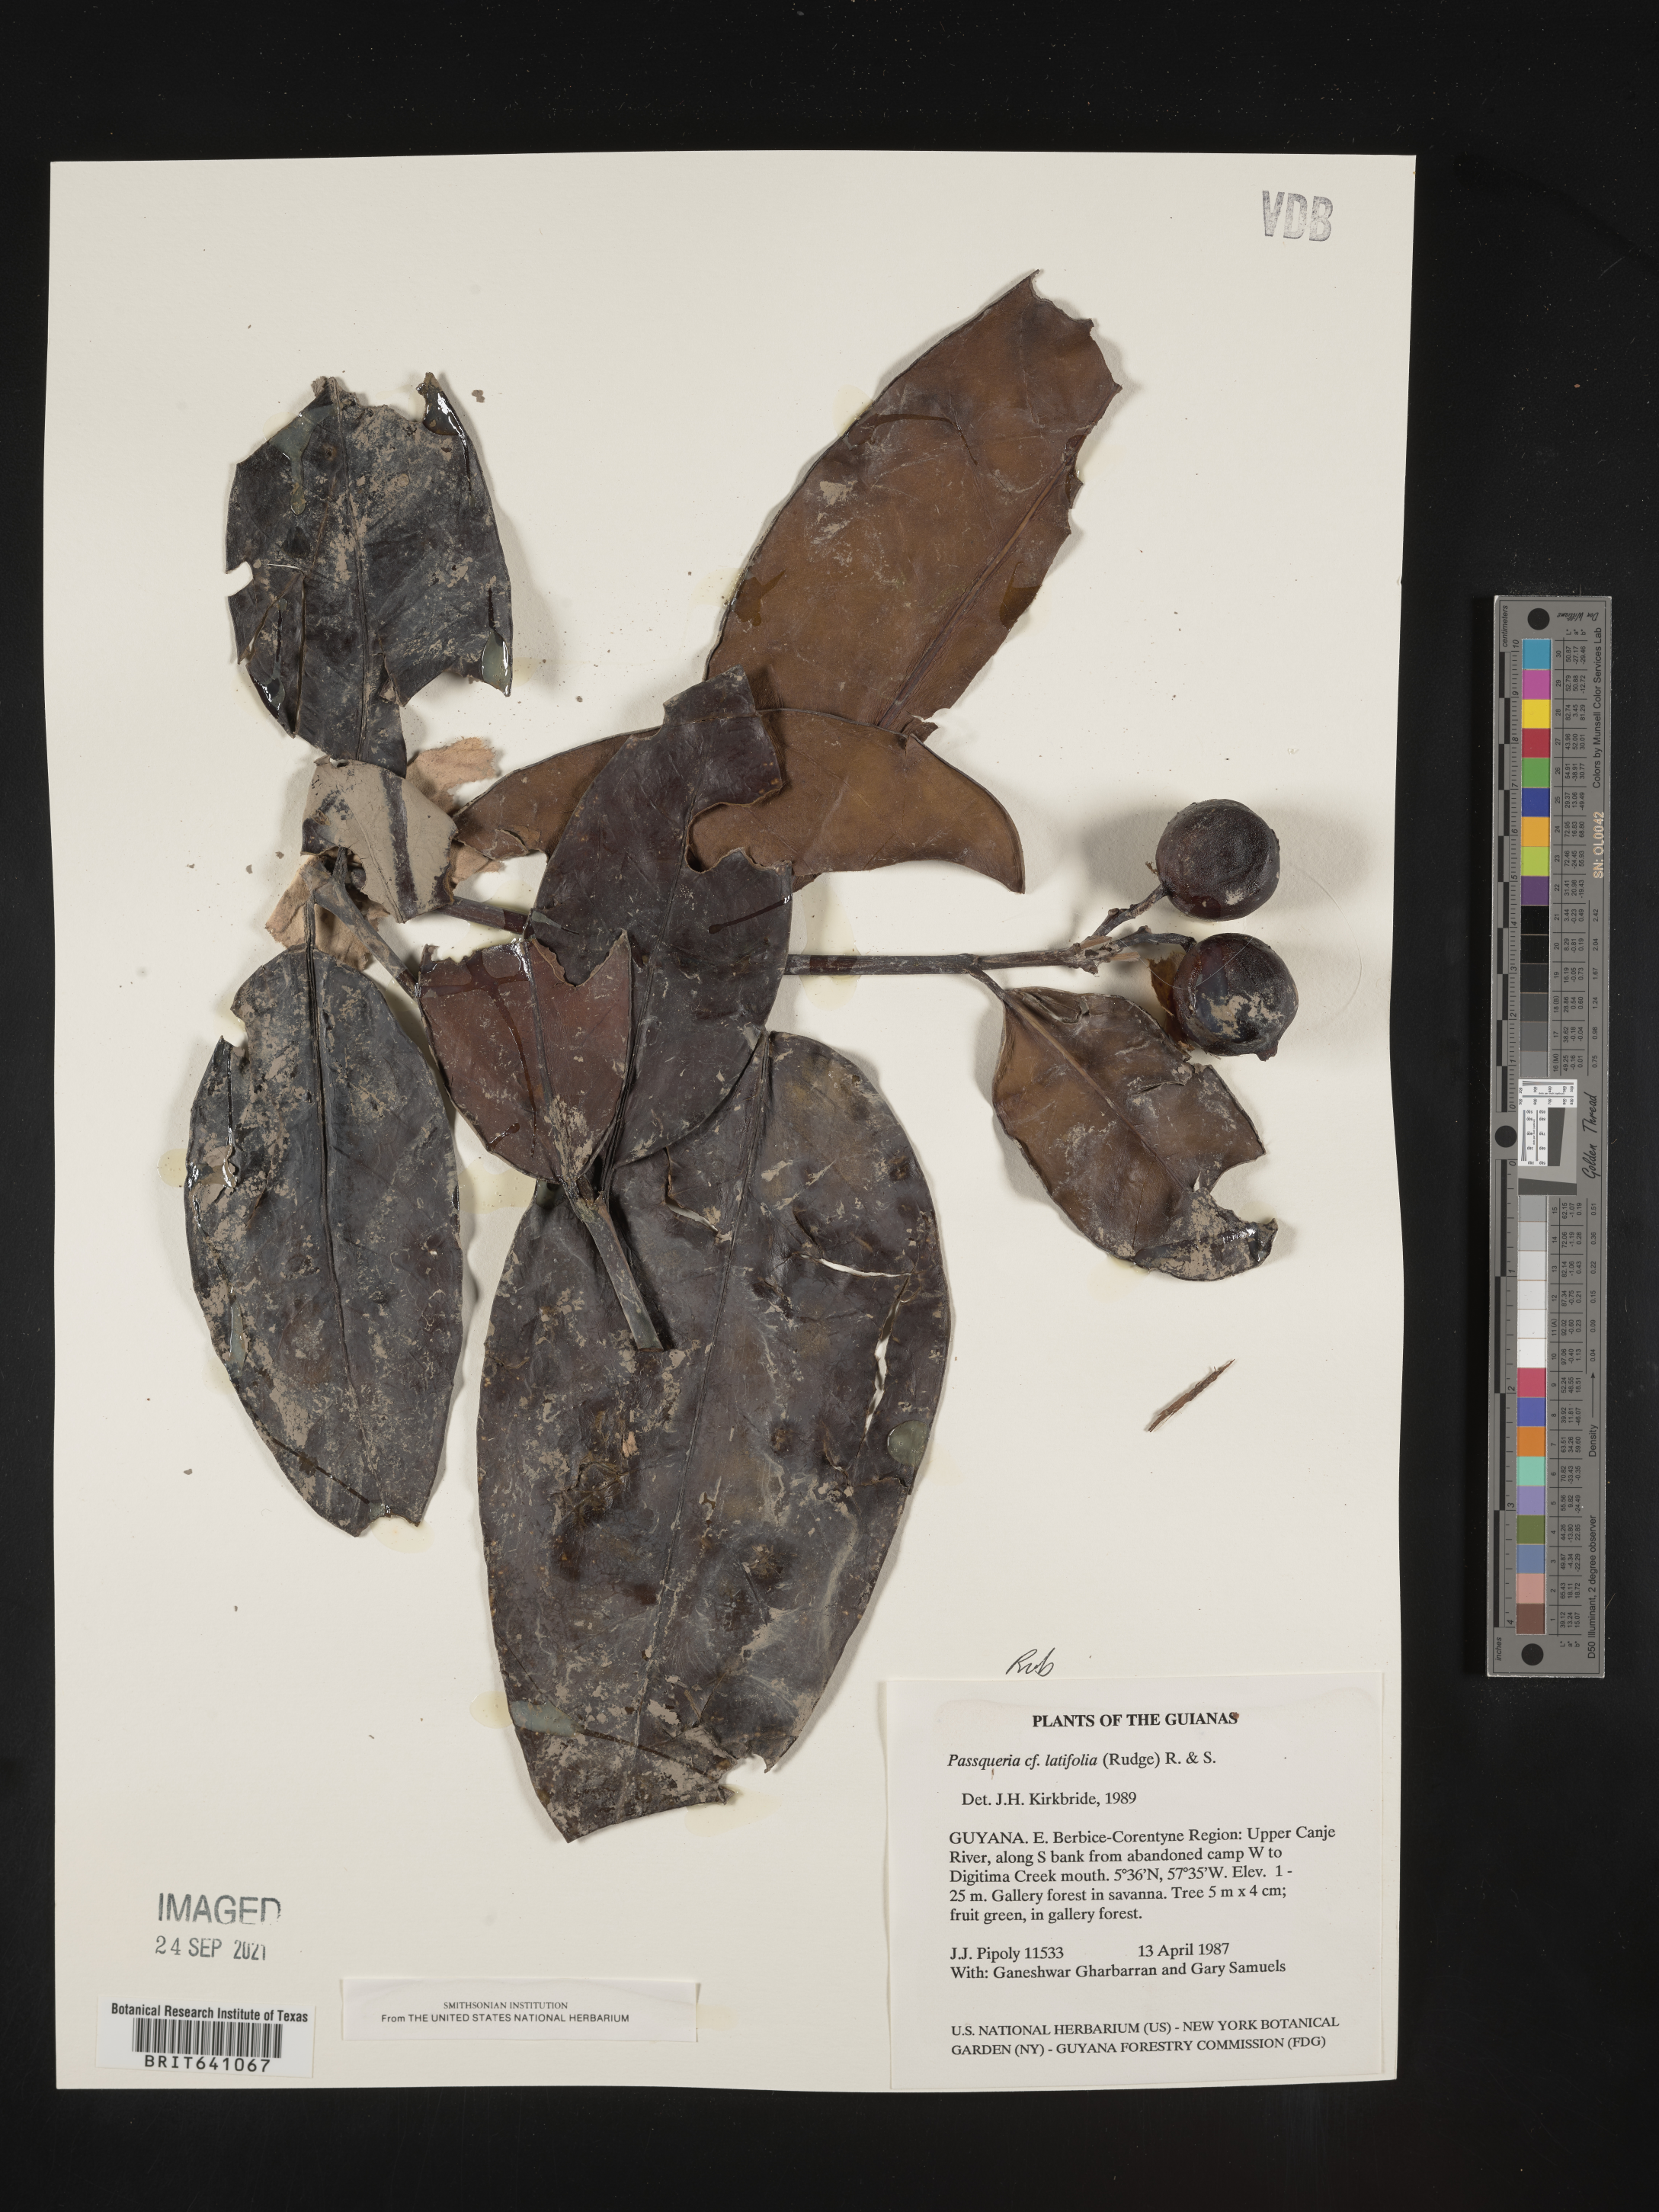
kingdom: Plantae
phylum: Tracheophyta
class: Magnoliopsida
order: Gentianales
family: Rubiaceae
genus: Posoqueria
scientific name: Posoqueria
